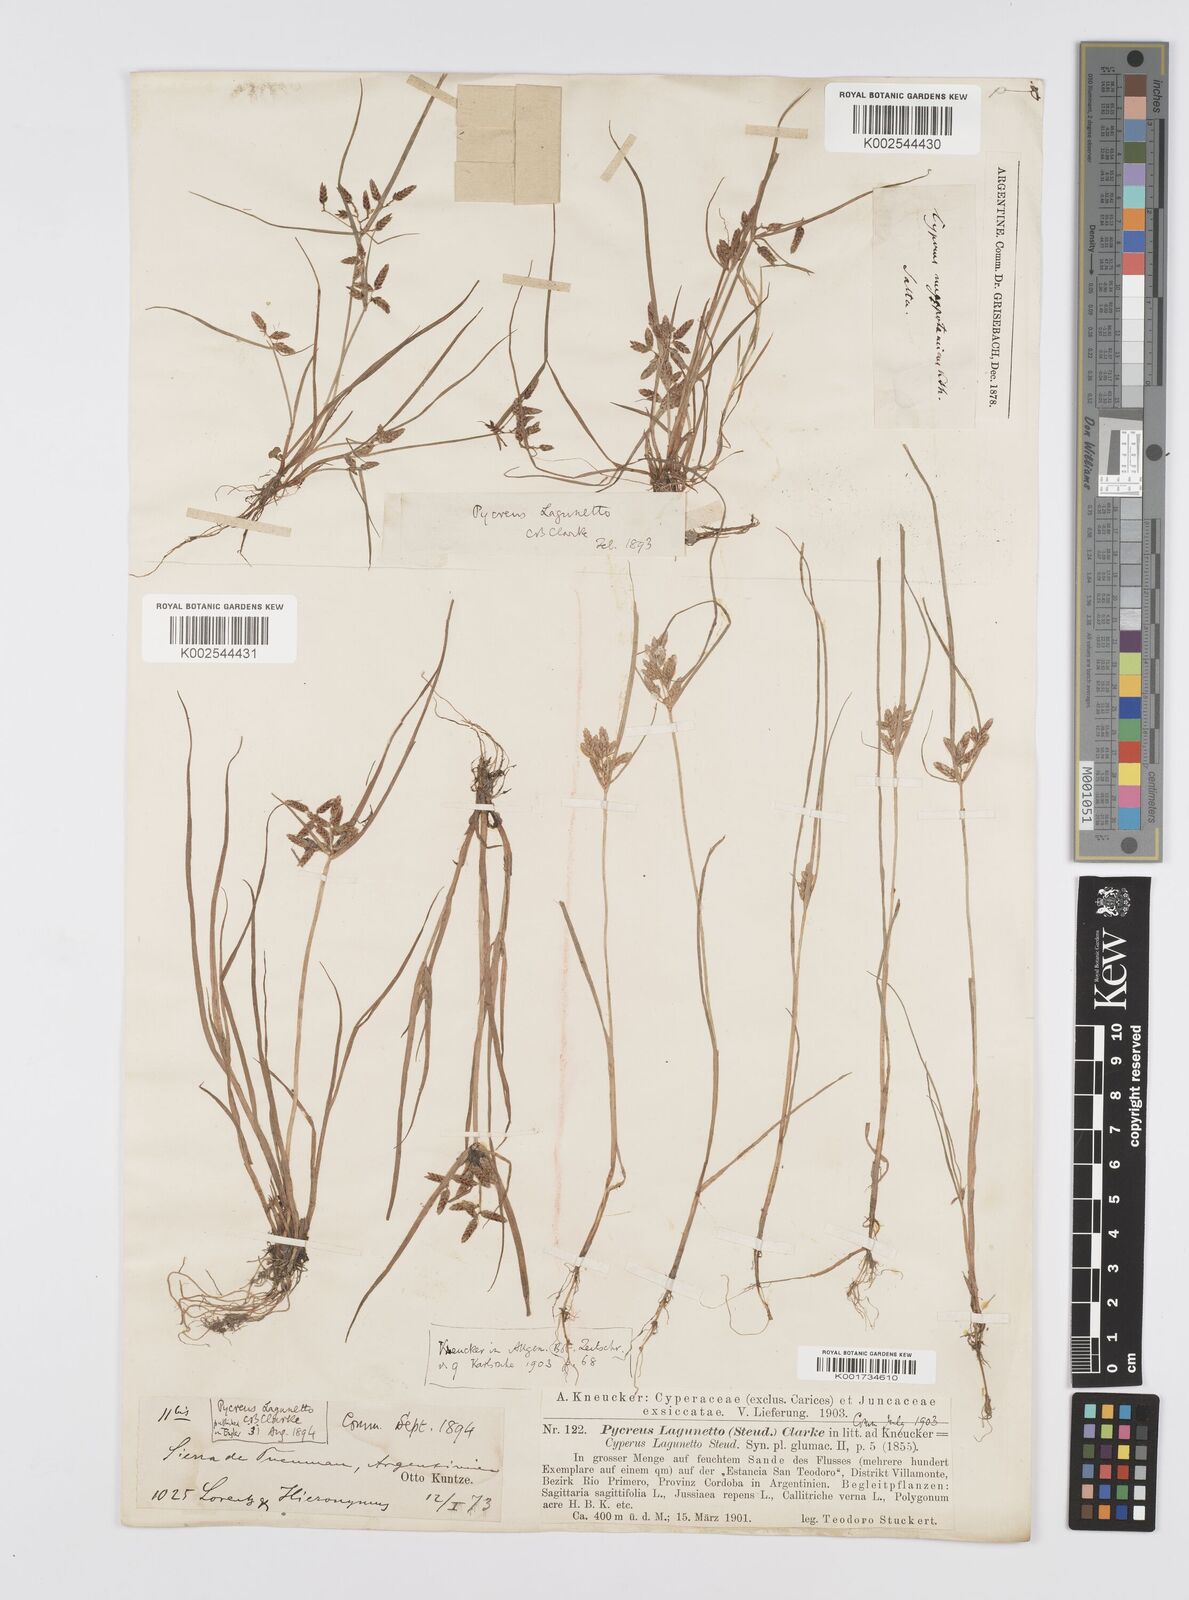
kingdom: Plantae
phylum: Tracheophyta
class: Liliopsida
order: Poales
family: Cyperaceae
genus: Cyperus
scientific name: Cyperus bipartitus
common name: Brook flatsedge
